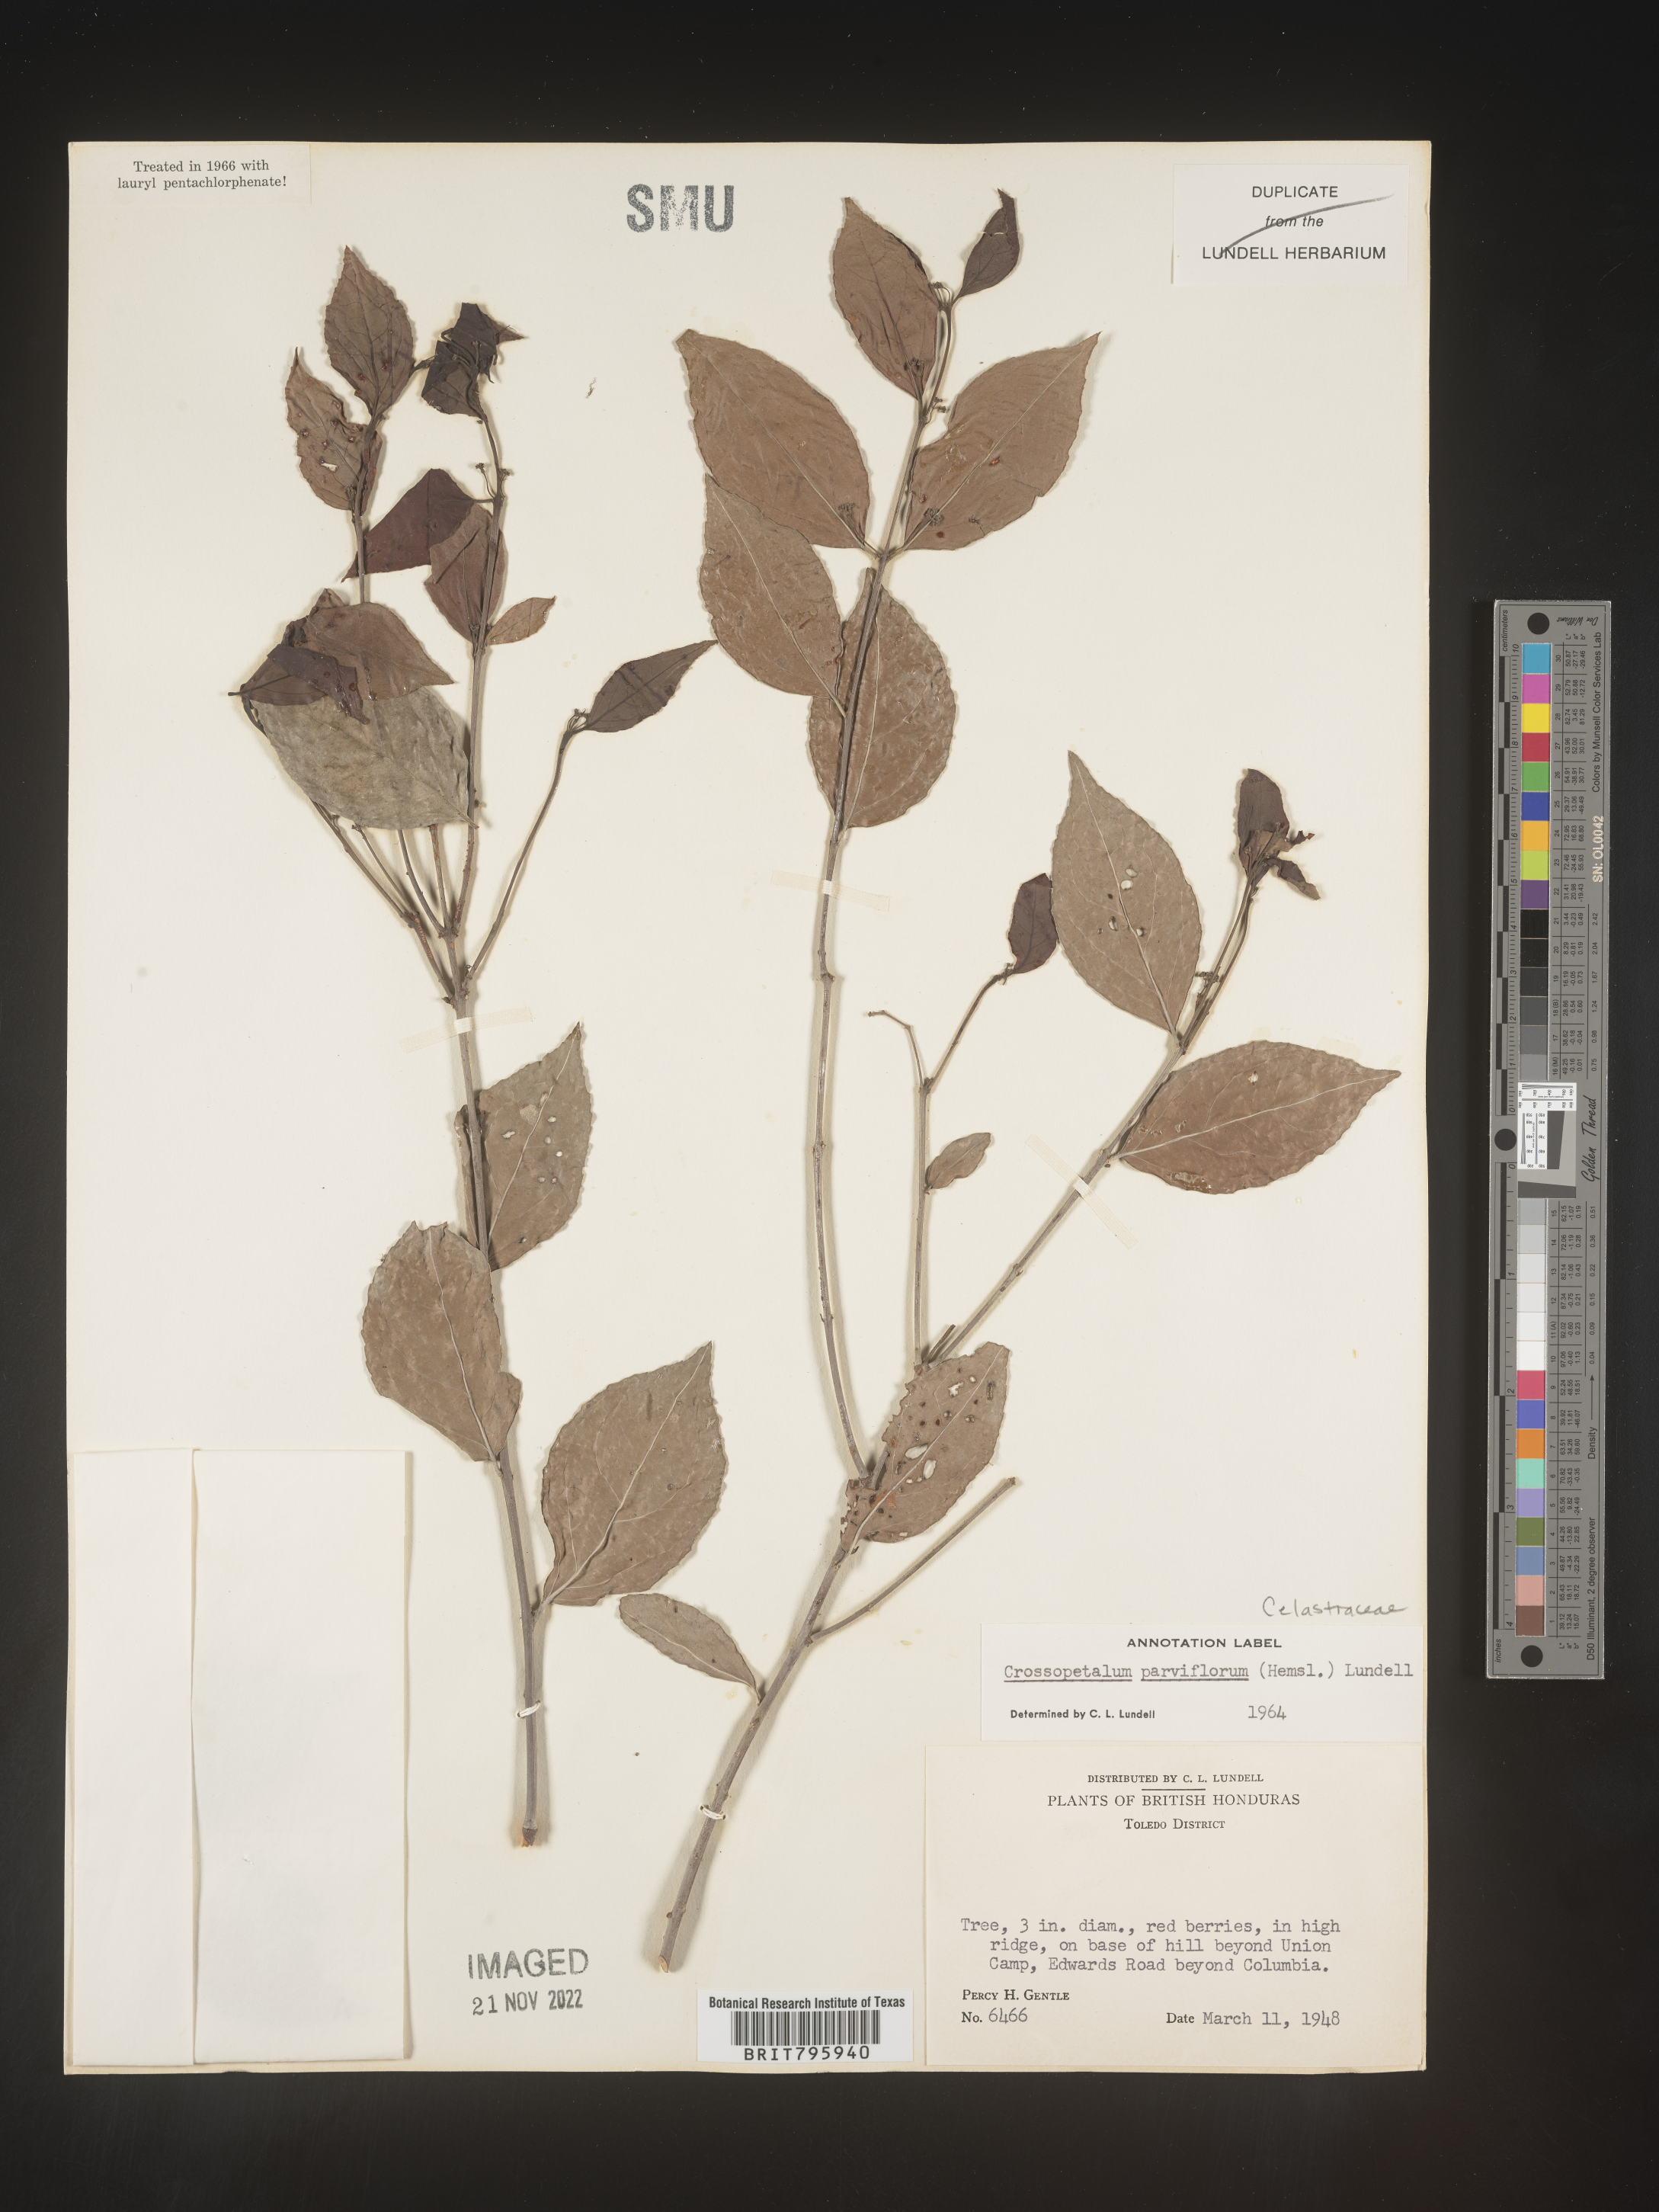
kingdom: Plantae
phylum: Tracheophyta
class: Magnoliopsida
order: Celastrales
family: Celastraceae
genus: Crossopetalum
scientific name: Crossopetalum parviflorum
